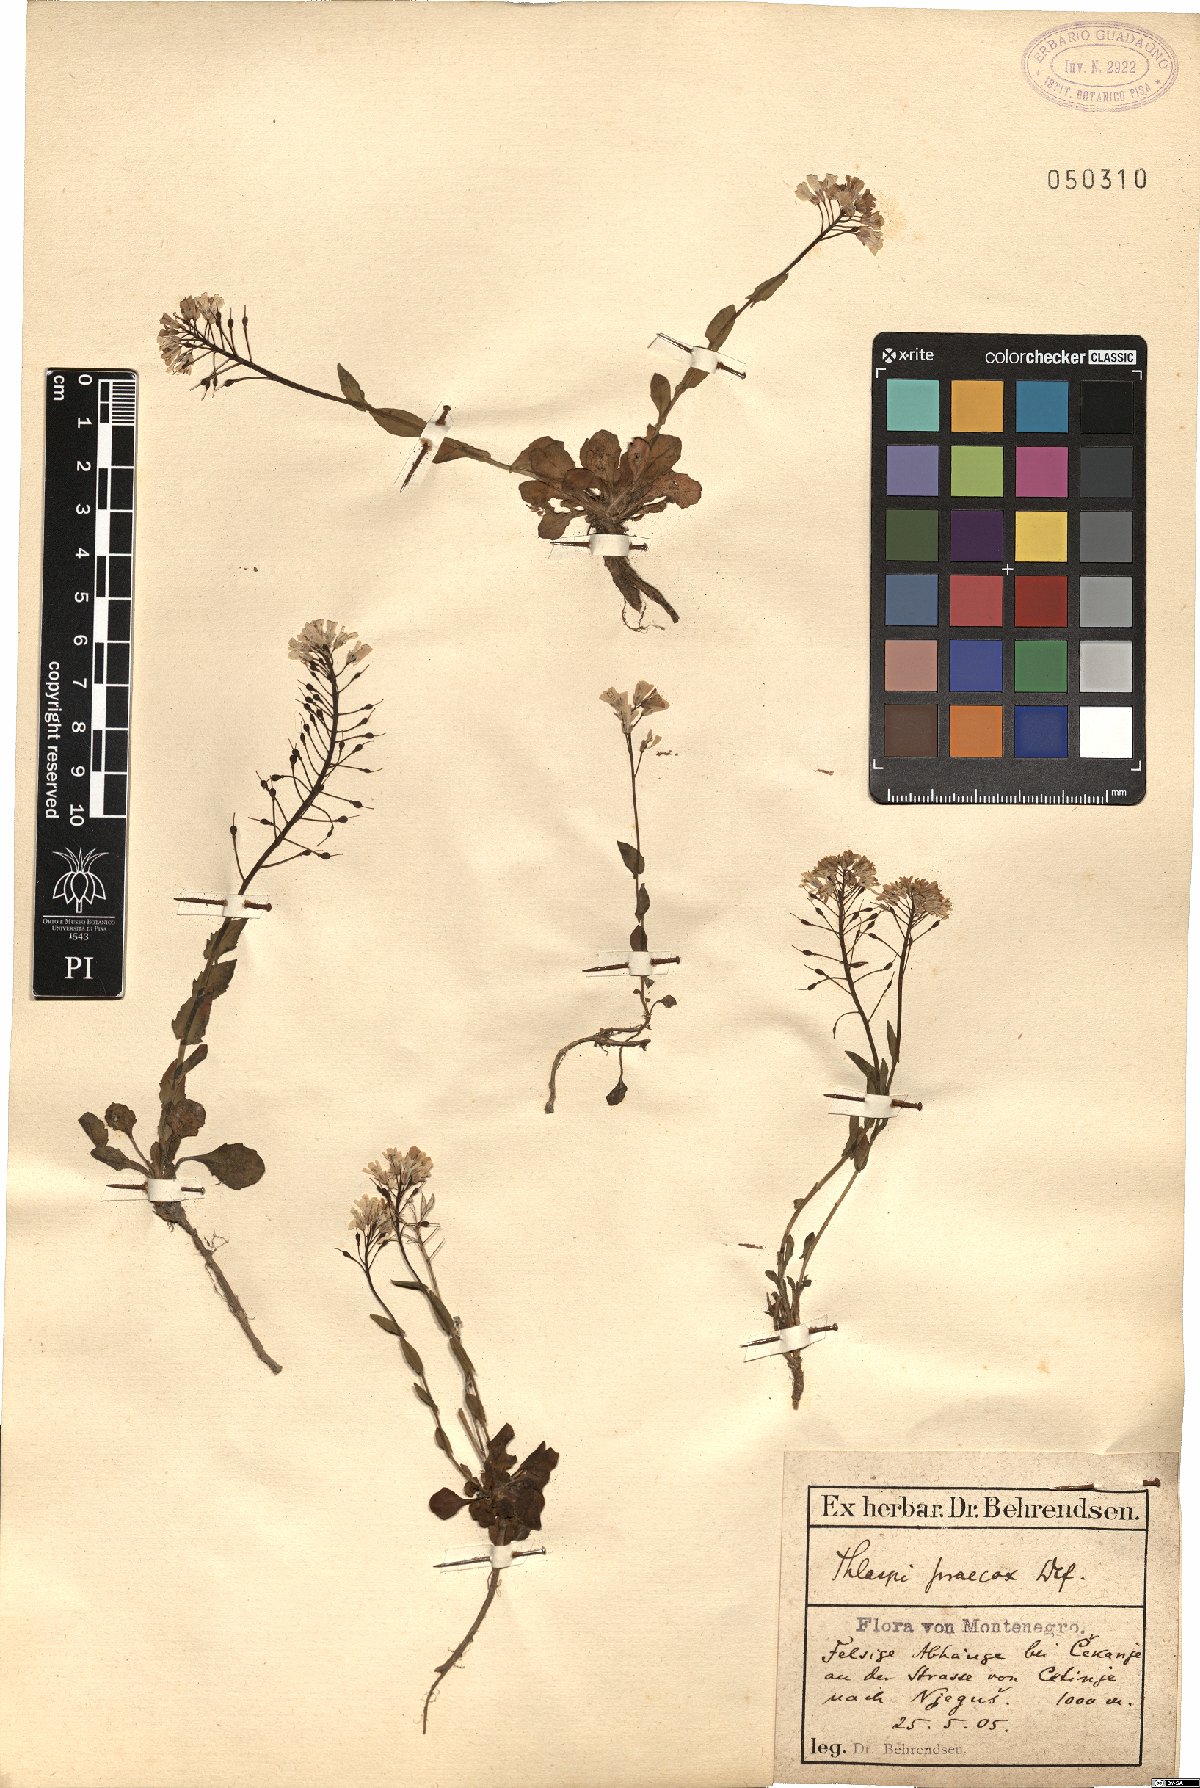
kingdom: Plantae
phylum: Tracheophyta
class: Magnoliopsida
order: Brassicales
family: Brassicaceae
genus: Noccaea
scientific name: Noccaea praecox
